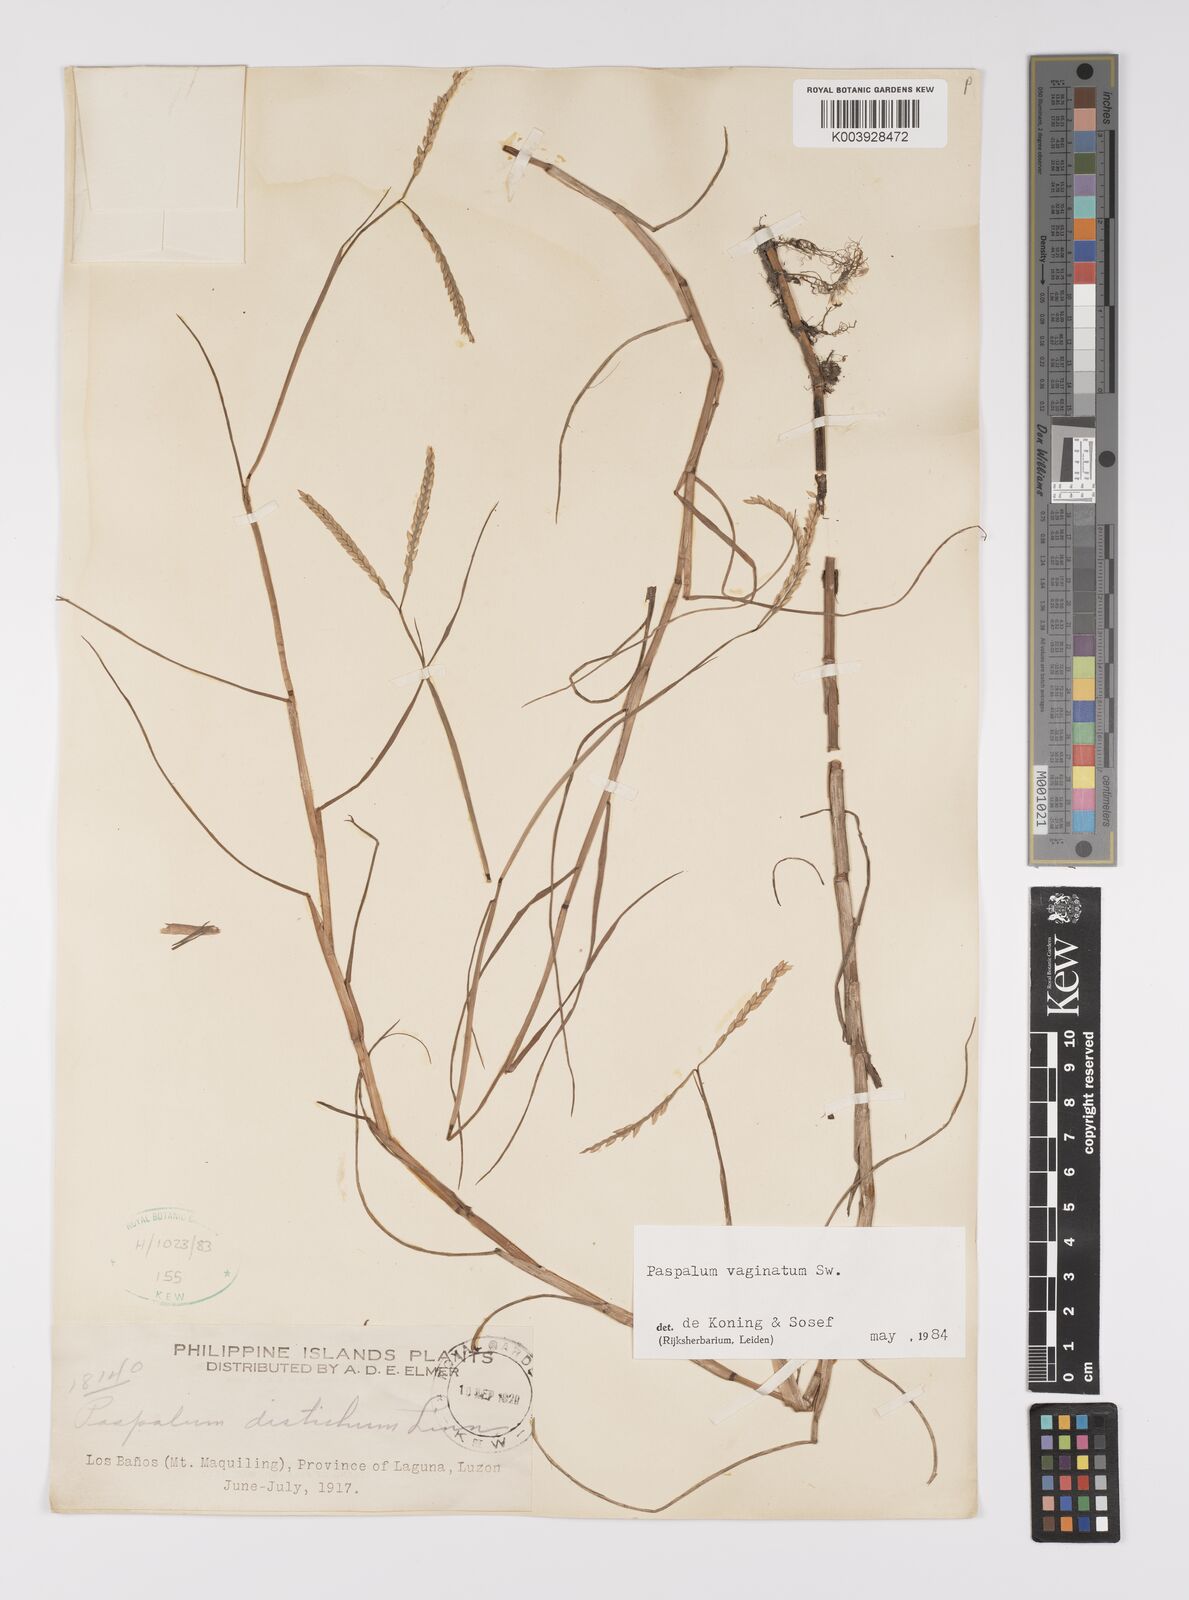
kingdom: Plantae
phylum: Tracheophyta
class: Liliopsida
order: Poales
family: Poaceae
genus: Paspalum
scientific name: Paspalum vaginatum
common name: Seashore paspalum
